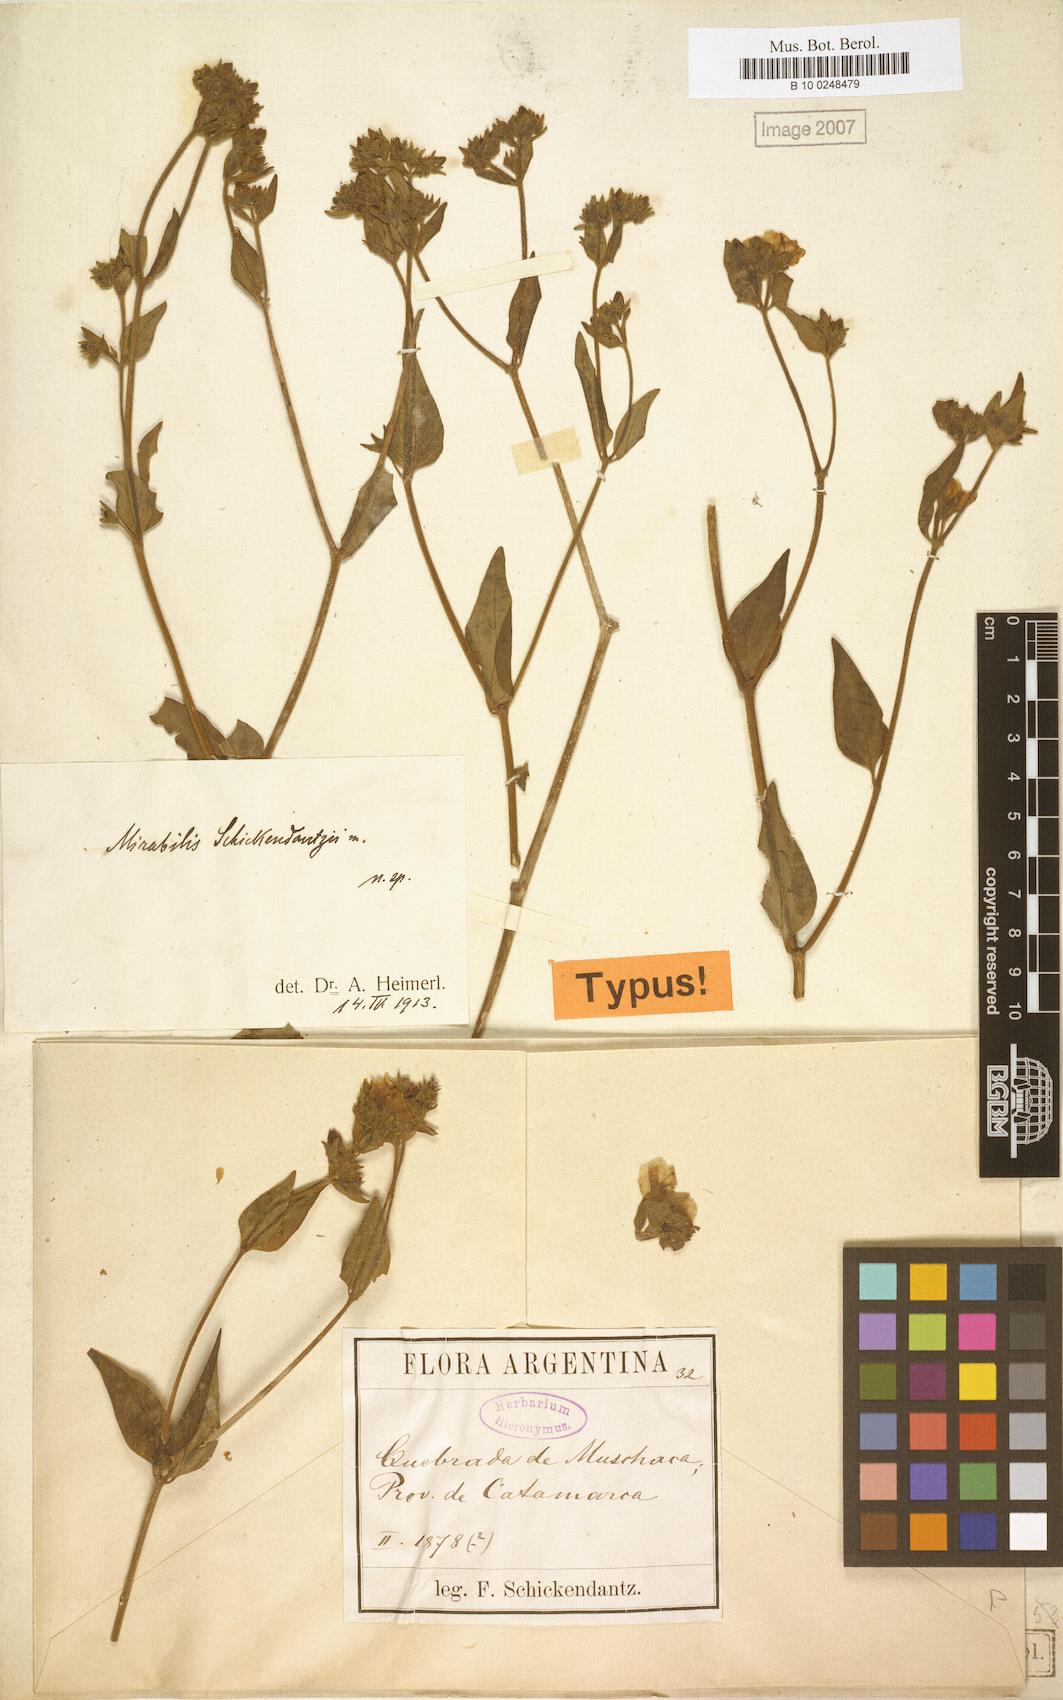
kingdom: Plantae
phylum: Tracheophyta
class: Magnoliopsida
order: Caryophyllales
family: Nyctaginaceae
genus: Mirabilis
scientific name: Mirabilis schickendantzii
